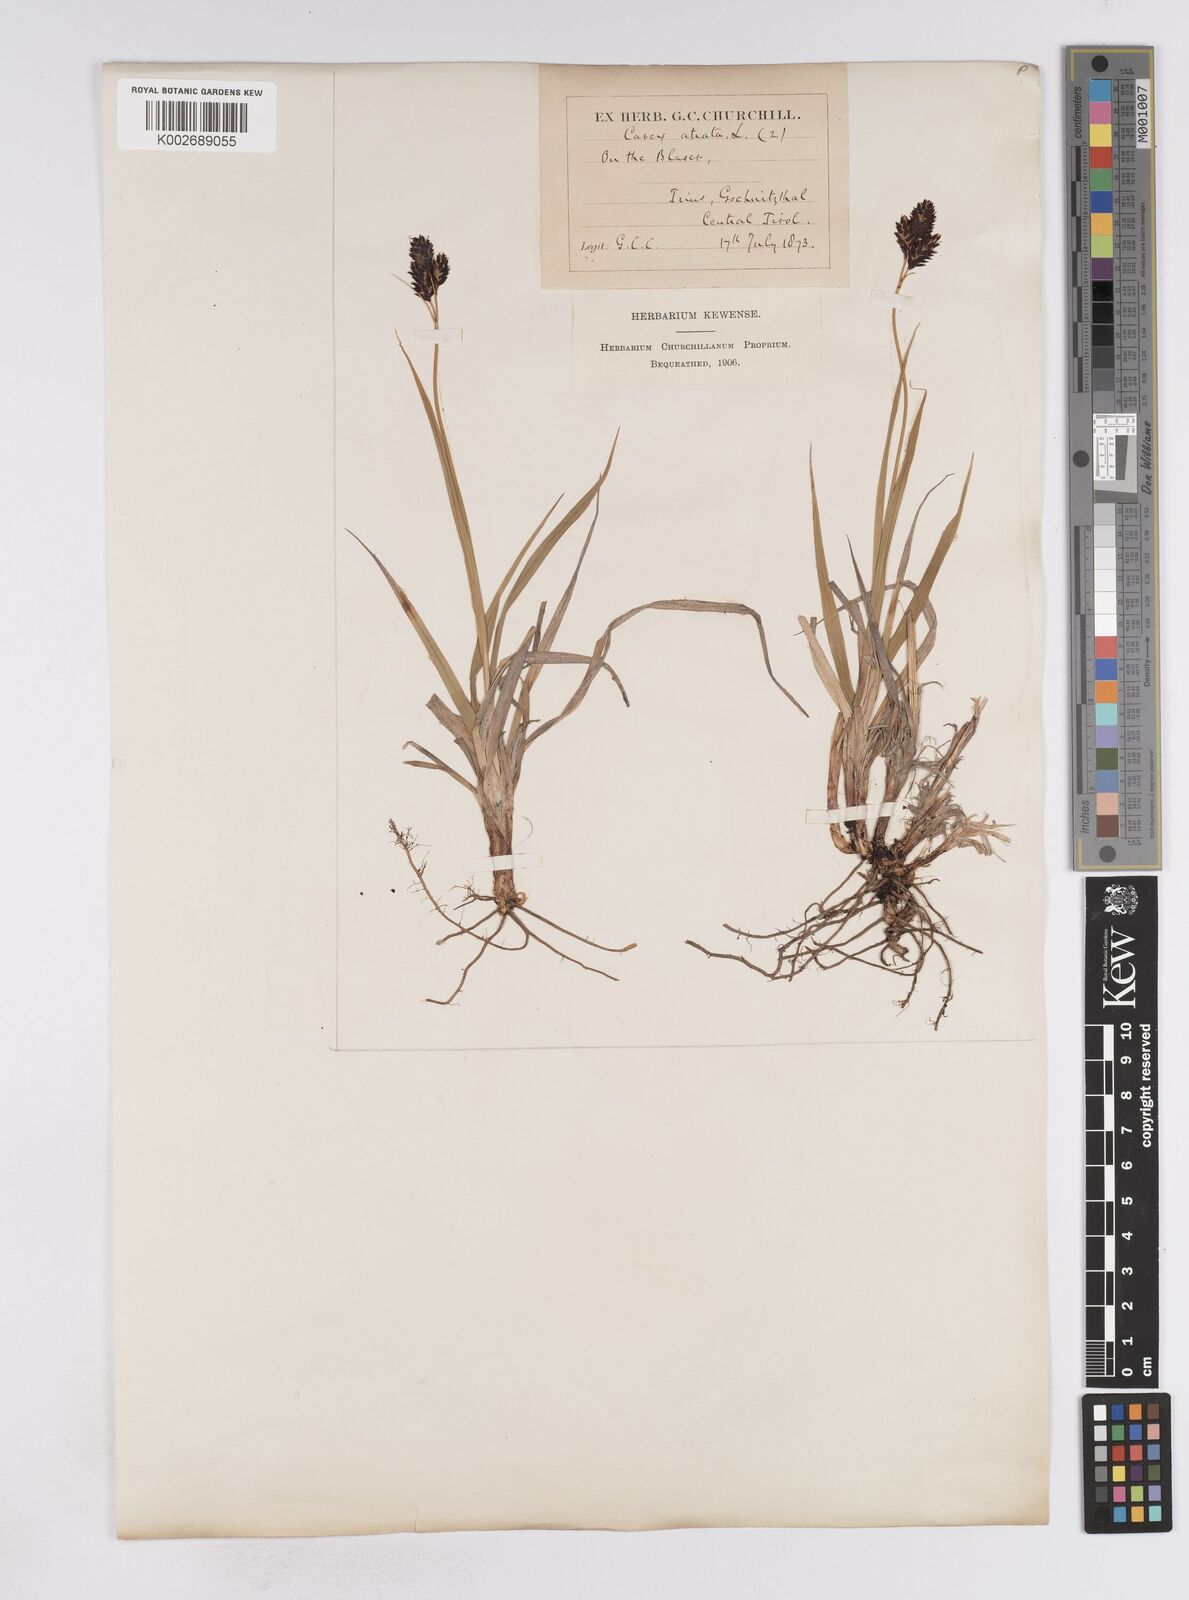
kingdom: Plantae
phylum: Tracheophyta
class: Liliopsida
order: Poales
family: Cyperaceae
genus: Carex
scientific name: Carex atrata
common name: Black alpine sedge
